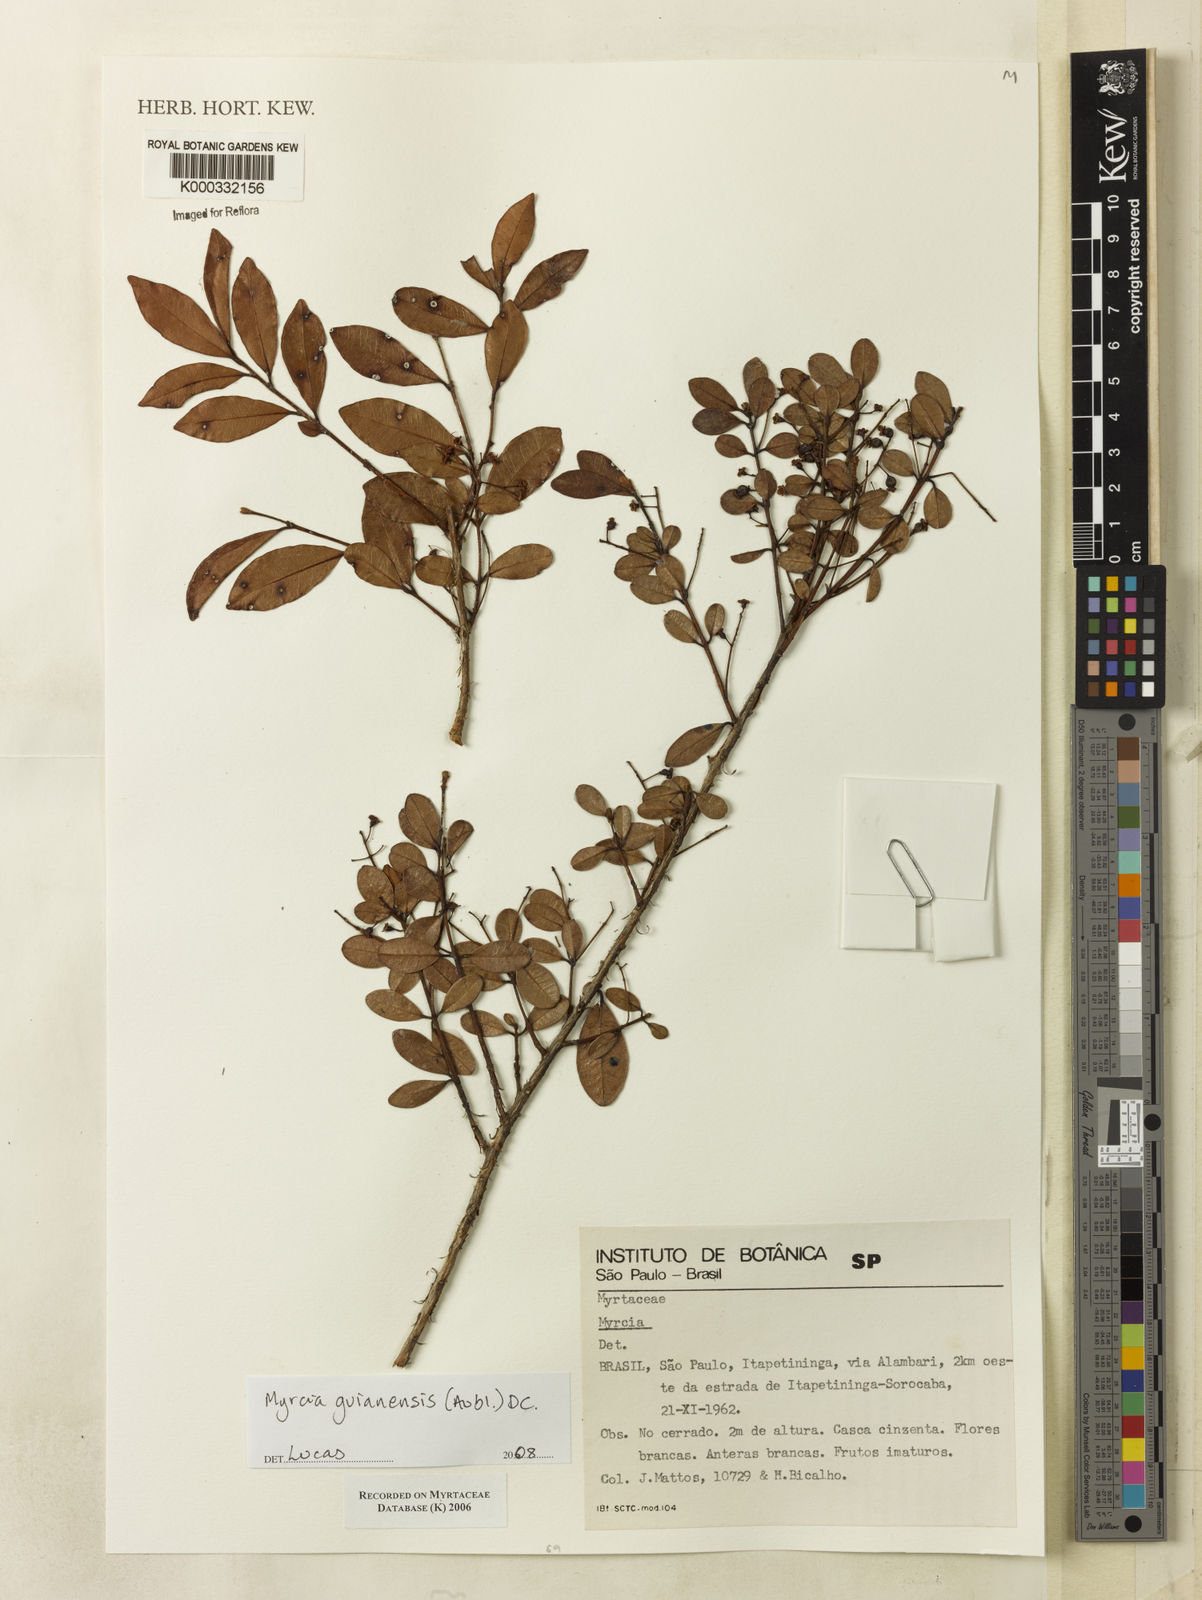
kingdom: Plantae
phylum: Tracheophyta
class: Magnoliopsida
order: Myrtales
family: Myrtaceae
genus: Myrcia
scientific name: Myrcia
